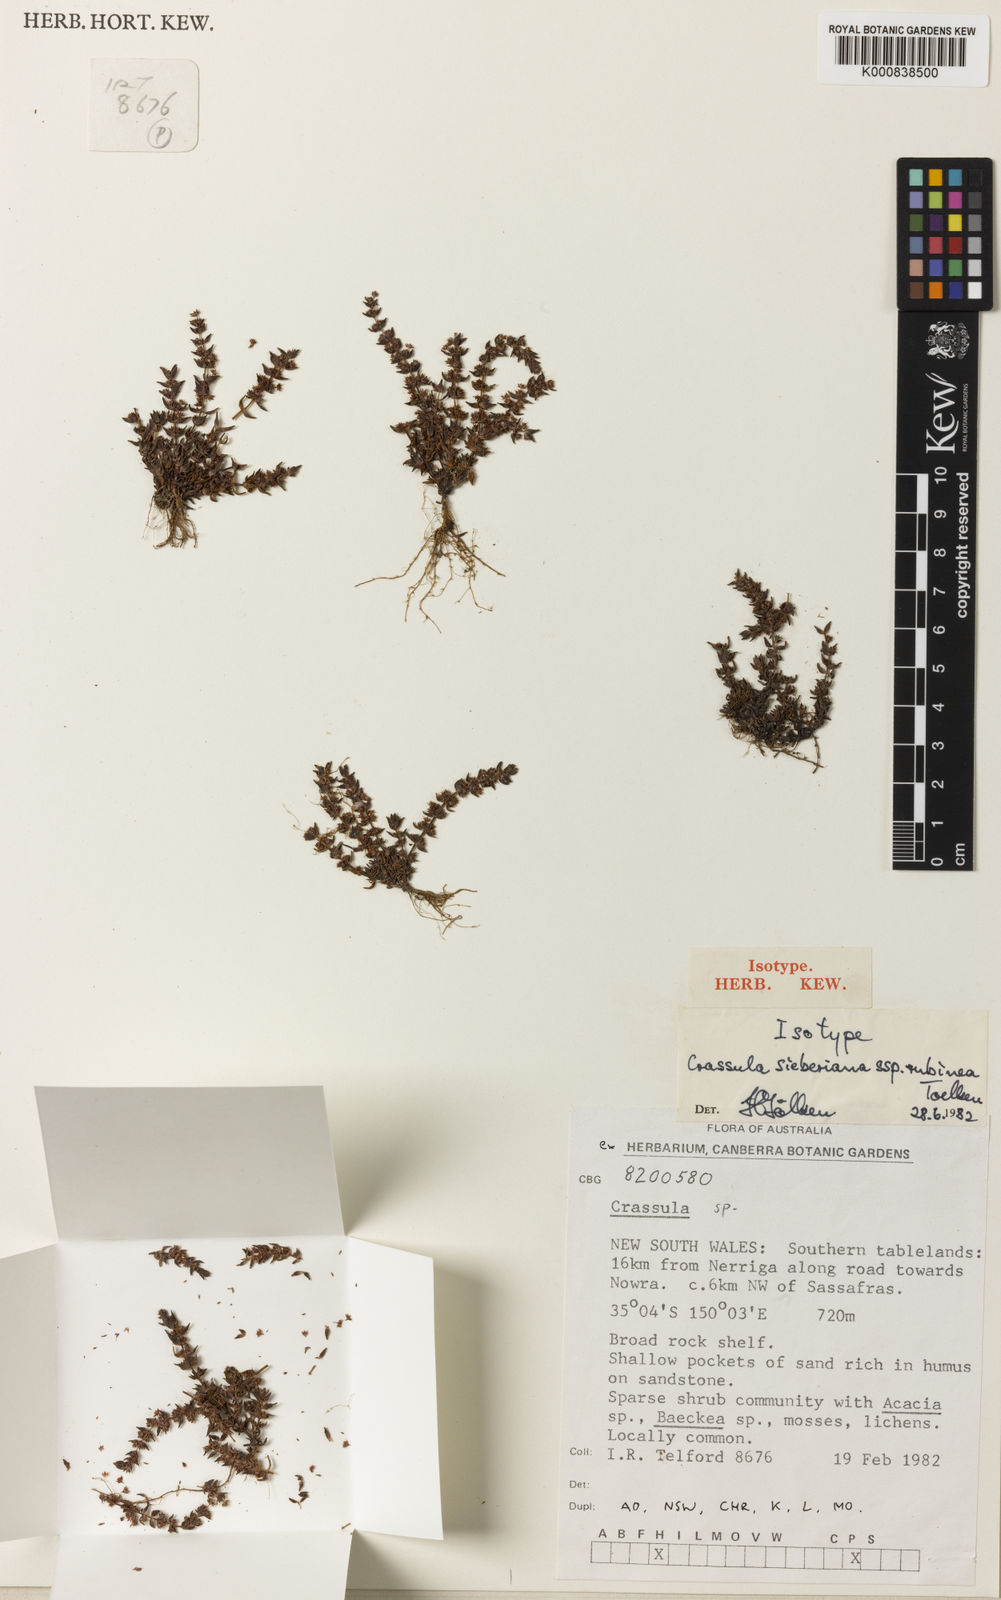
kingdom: Plantae
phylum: Tracheophyta
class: Magnoliopsida
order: Saxifragales
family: Crassulaceae
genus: Crassula
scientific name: Crassula sieberiana
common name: Siberian pygmyweed
